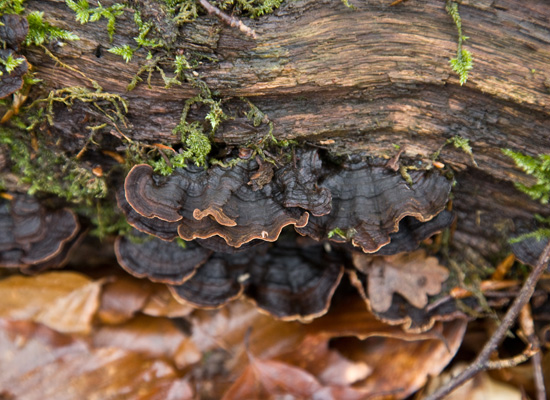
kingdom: Fungi
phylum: Basidiomycota
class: Agaricomycetes
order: Hymenochaetales
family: Hymenochaetaceae
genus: Hymenochaete
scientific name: Hymenochaete rubiginosa
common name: stiv ruslædersvamp
